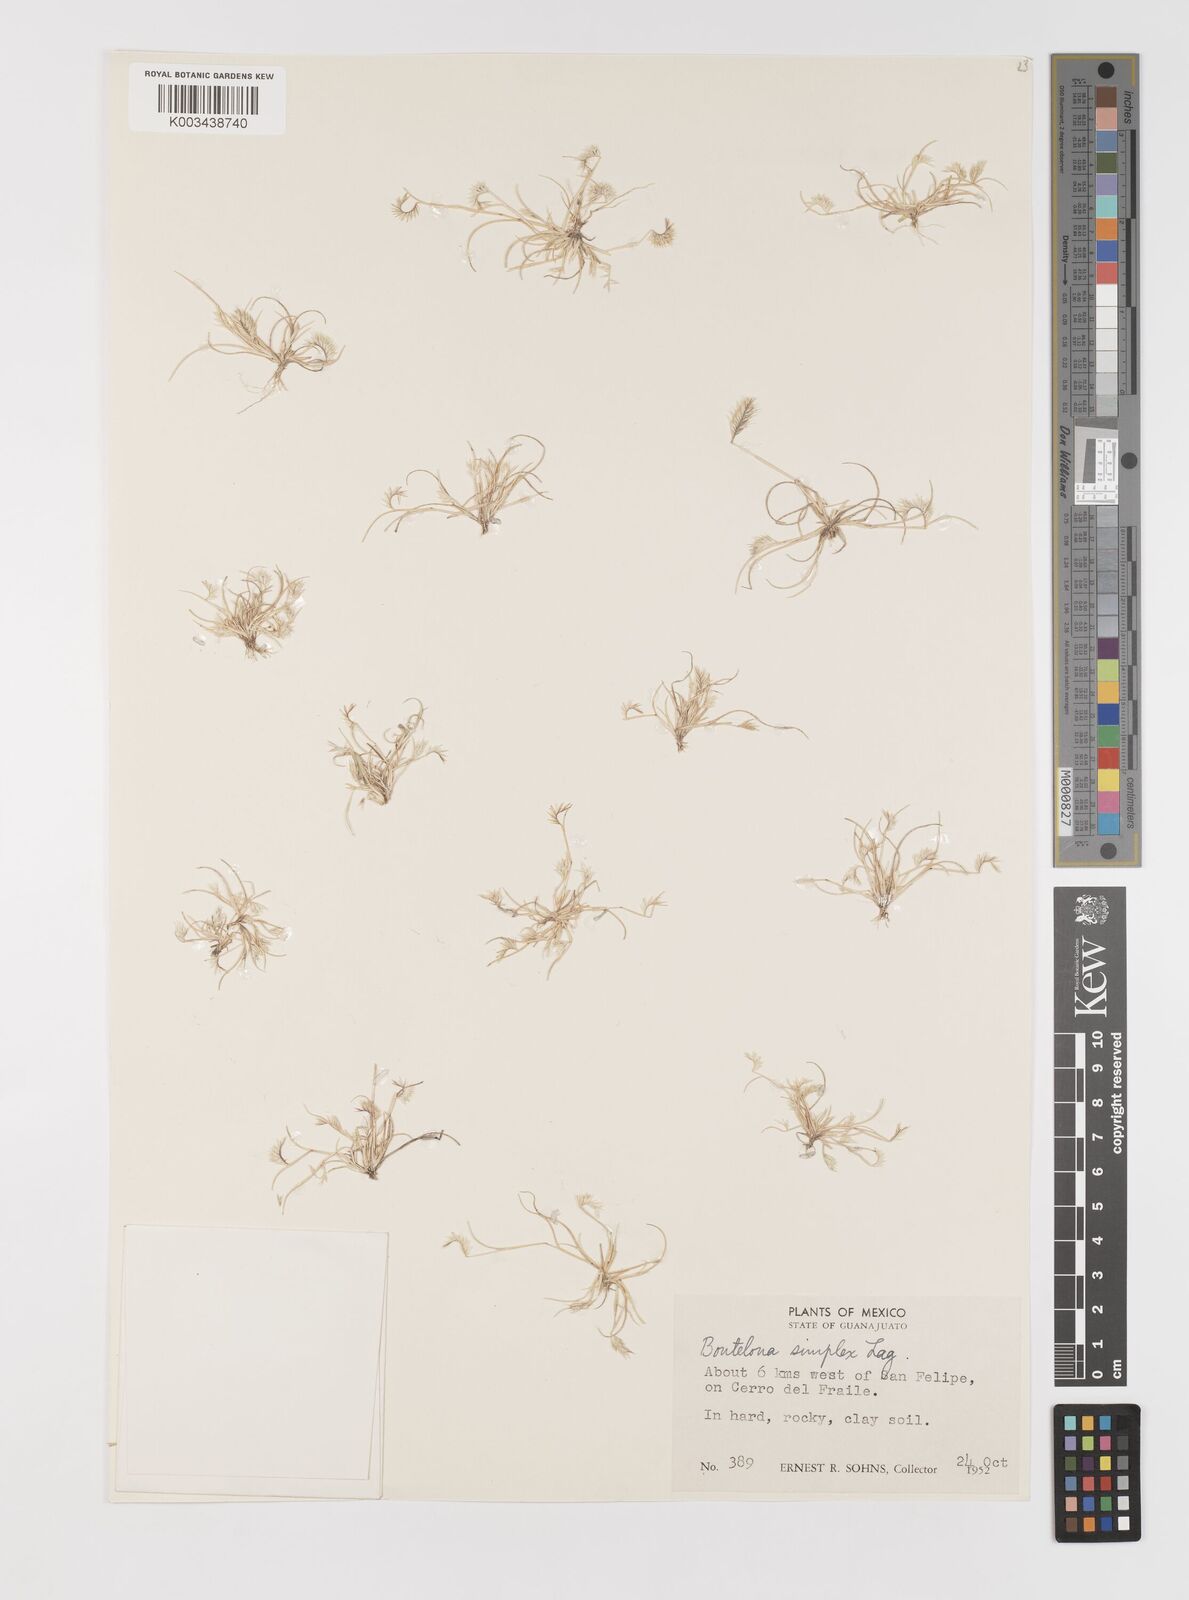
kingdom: Plantae
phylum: Tracheophyta
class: Liliopsida
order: Poales
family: Poaceae
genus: Bouteloua
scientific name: Bouteloua simplex
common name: Mat grama
